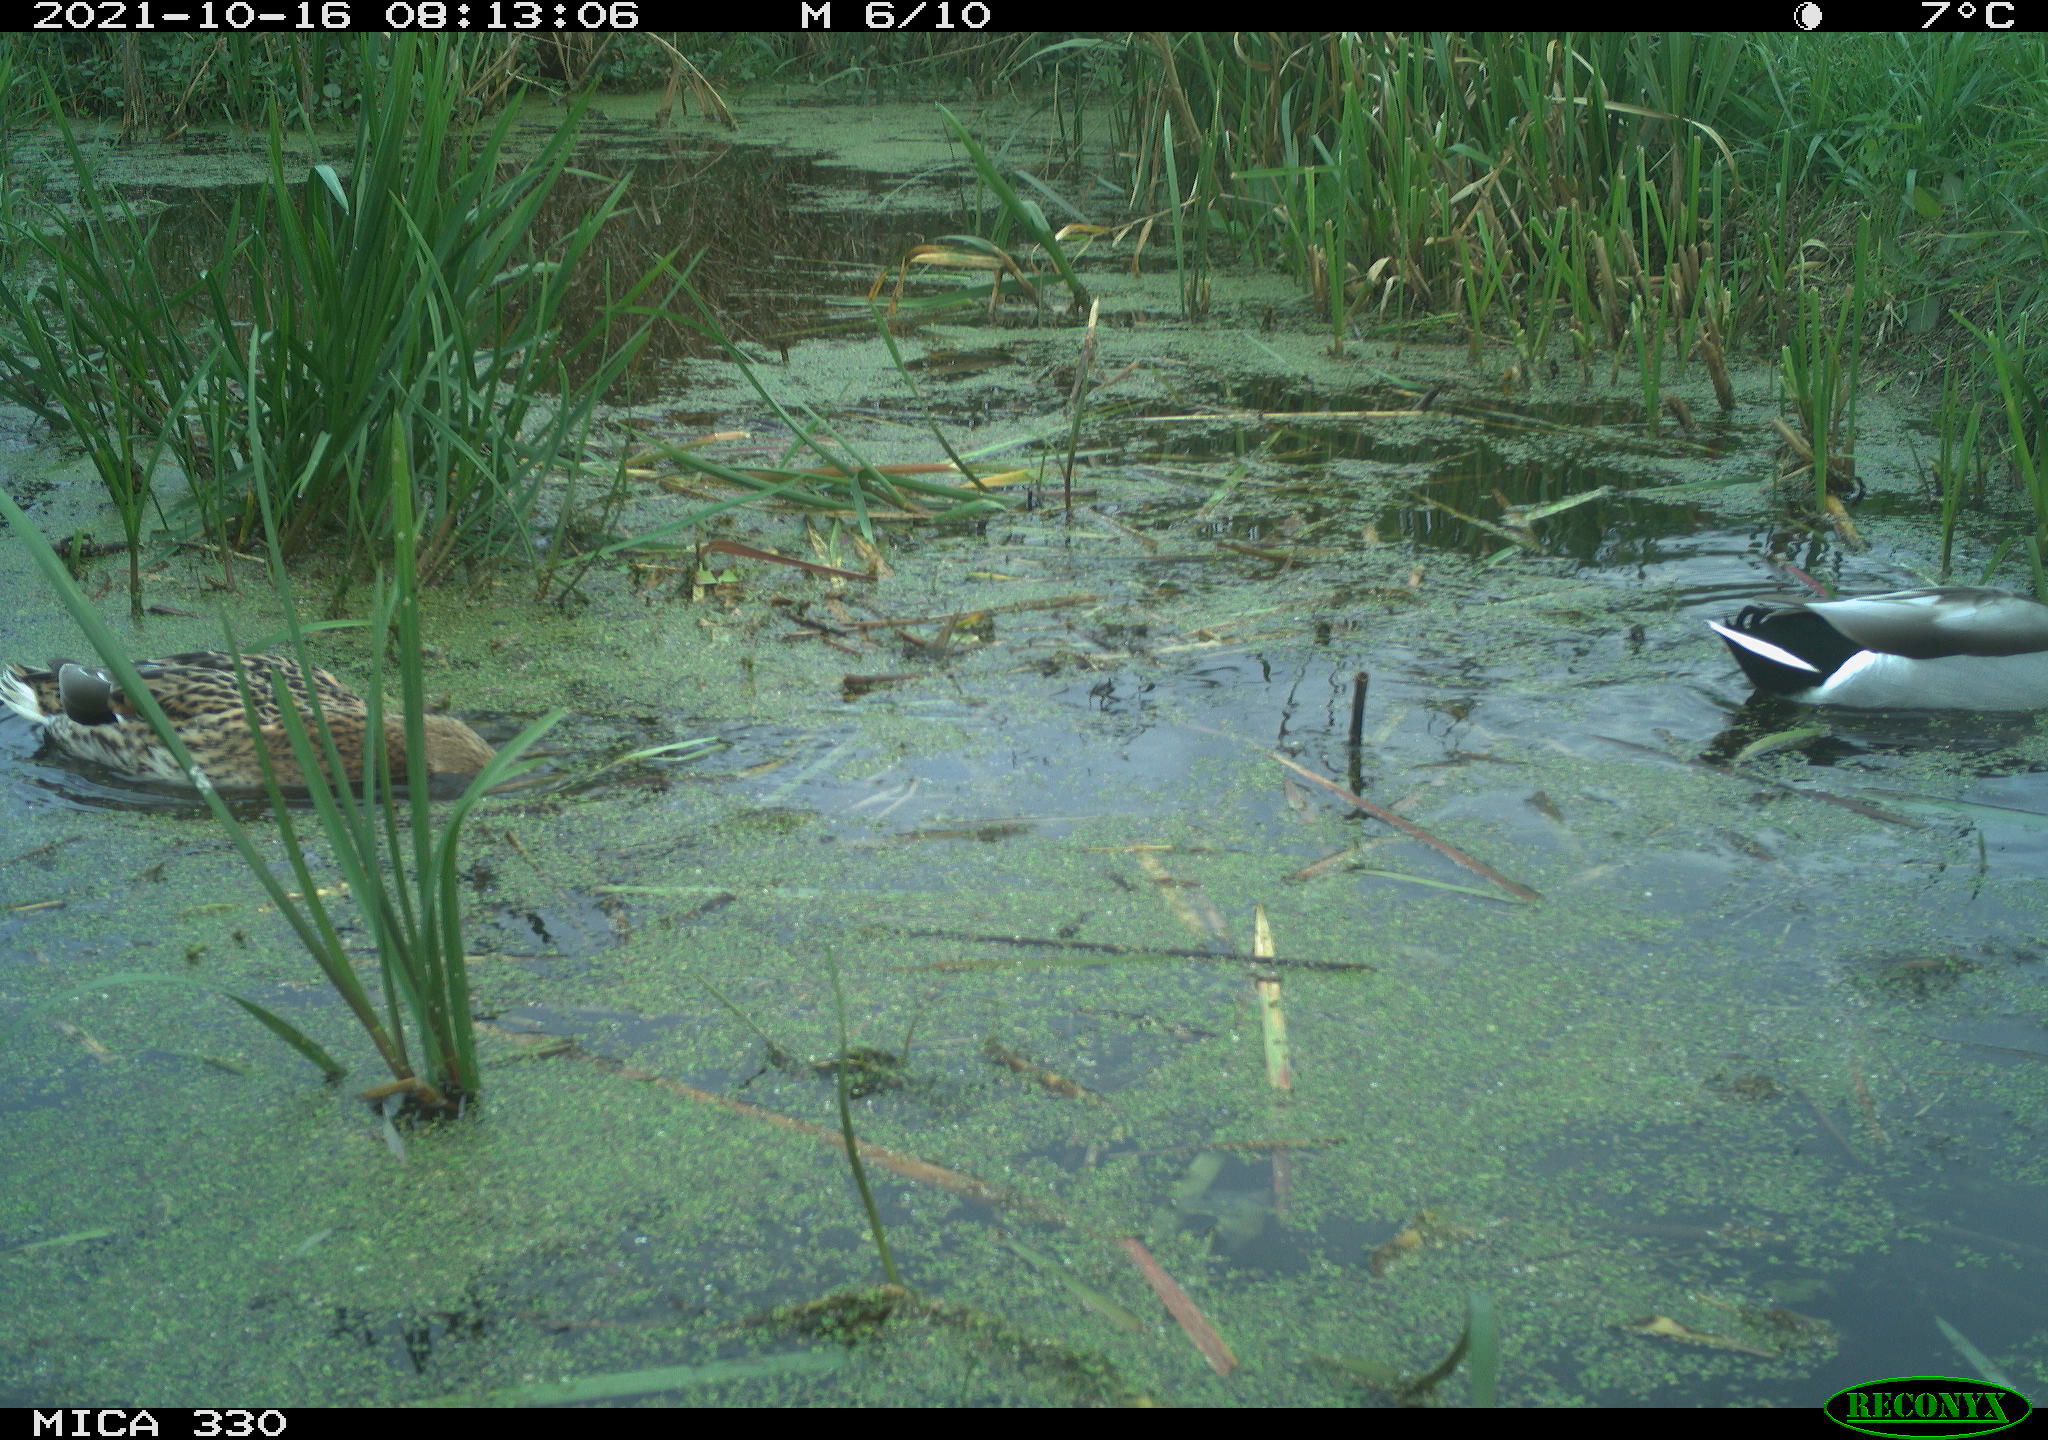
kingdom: Animalia
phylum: Chordata
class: Aves
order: Anseriformes
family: Anatidae
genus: Anas
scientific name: Anas platyrhynchos
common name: Mallard
